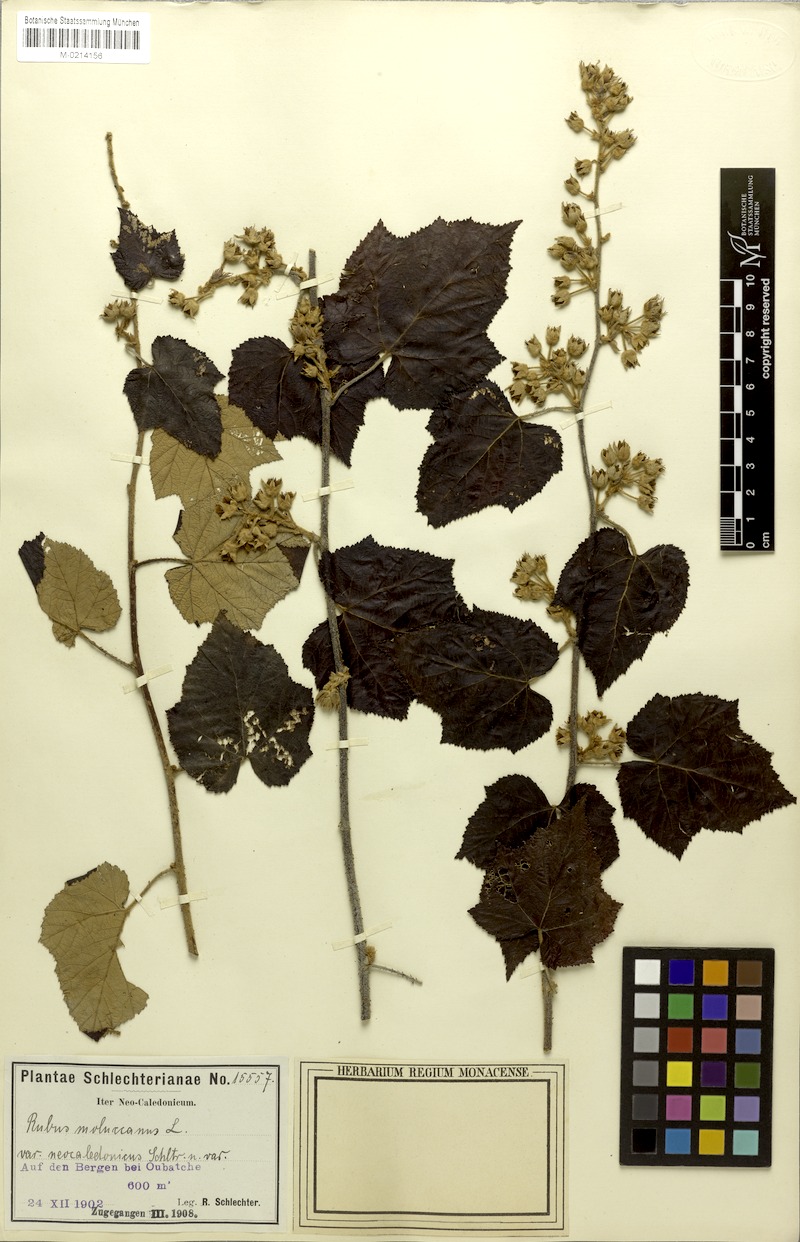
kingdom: Plantae
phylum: Tracheophyta
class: Magnoliopsida
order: Rosales
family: Rosaceae
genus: Rubus
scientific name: Rubus moluccanus
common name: Wild raspberry
